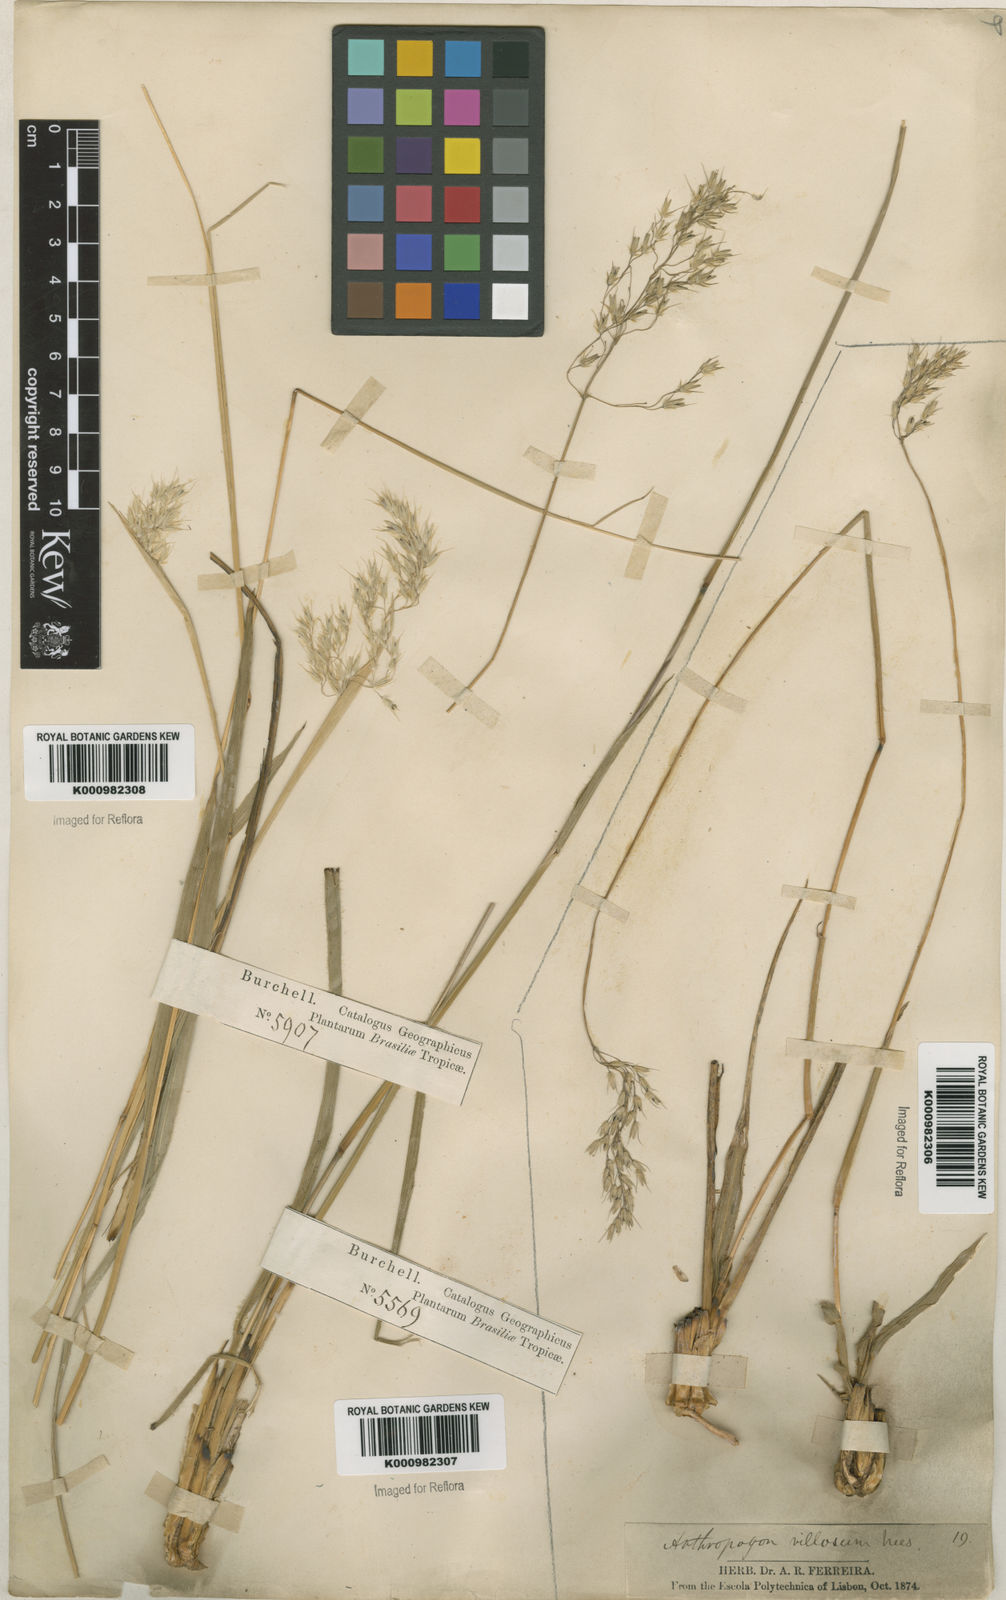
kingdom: Plantae
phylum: Tracheophyta
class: Liliopsida
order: Poales
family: Poaceae
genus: Arthropogon
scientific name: Arthropogon villosus
